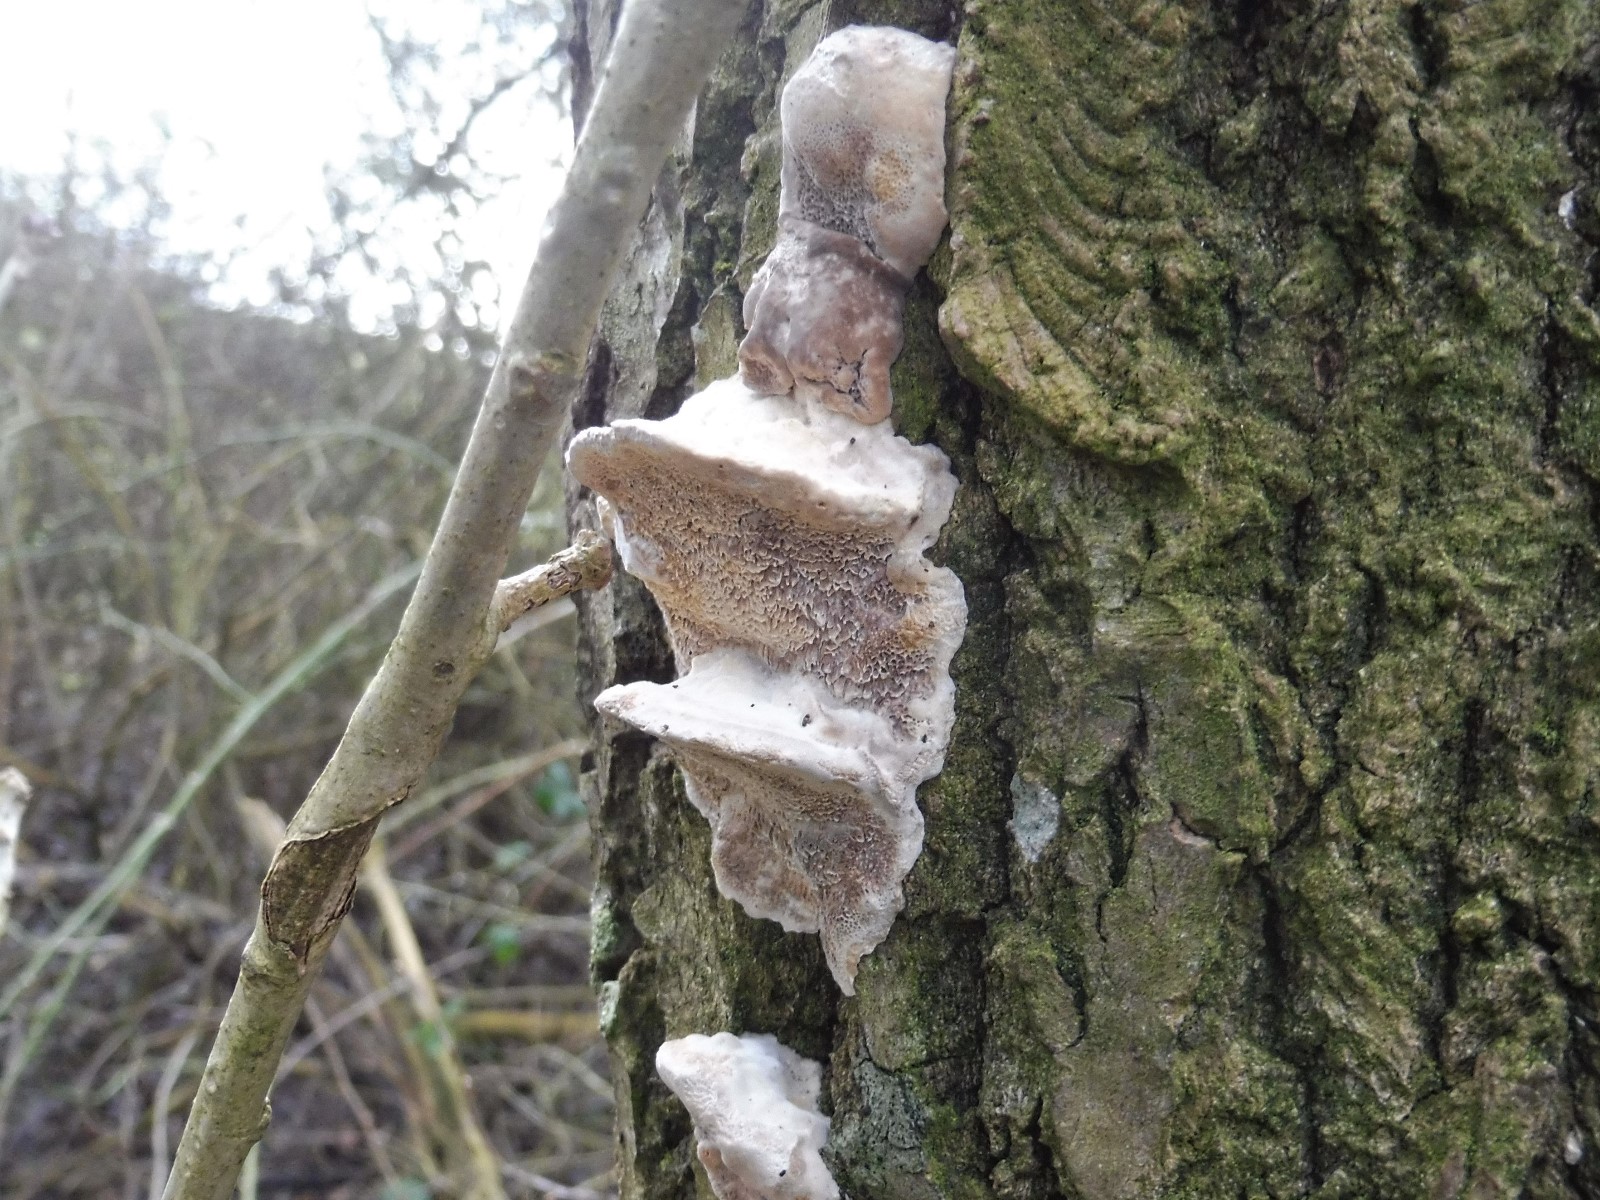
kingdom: Fungi
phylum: Basidiomycota
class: Agaricomycetes
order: Polyporales
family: Polyporaceae
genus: Trametes
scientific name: Trametes versicolor
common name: broget læderporesvamp
